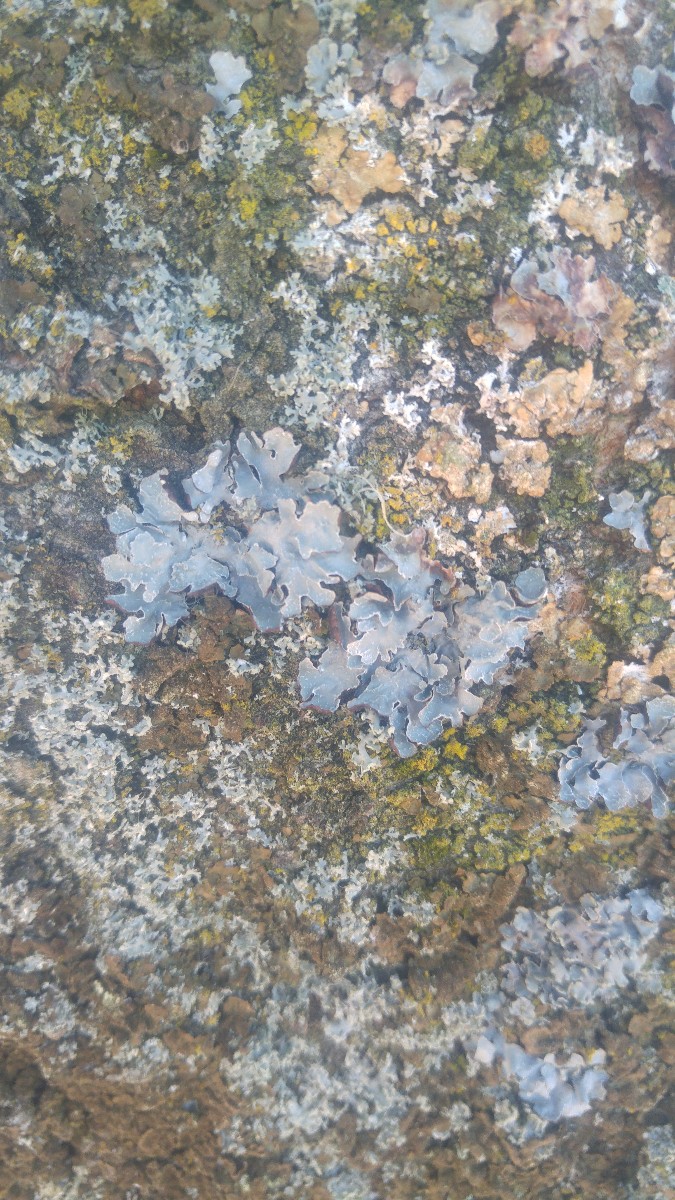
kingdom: Fungi
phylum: Ascomycota
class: Lecanoromycetes
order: Lecanorales
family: Parmeliaceae
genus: Parmelia
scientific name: Parmelia sulcata
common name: rynket skållav
